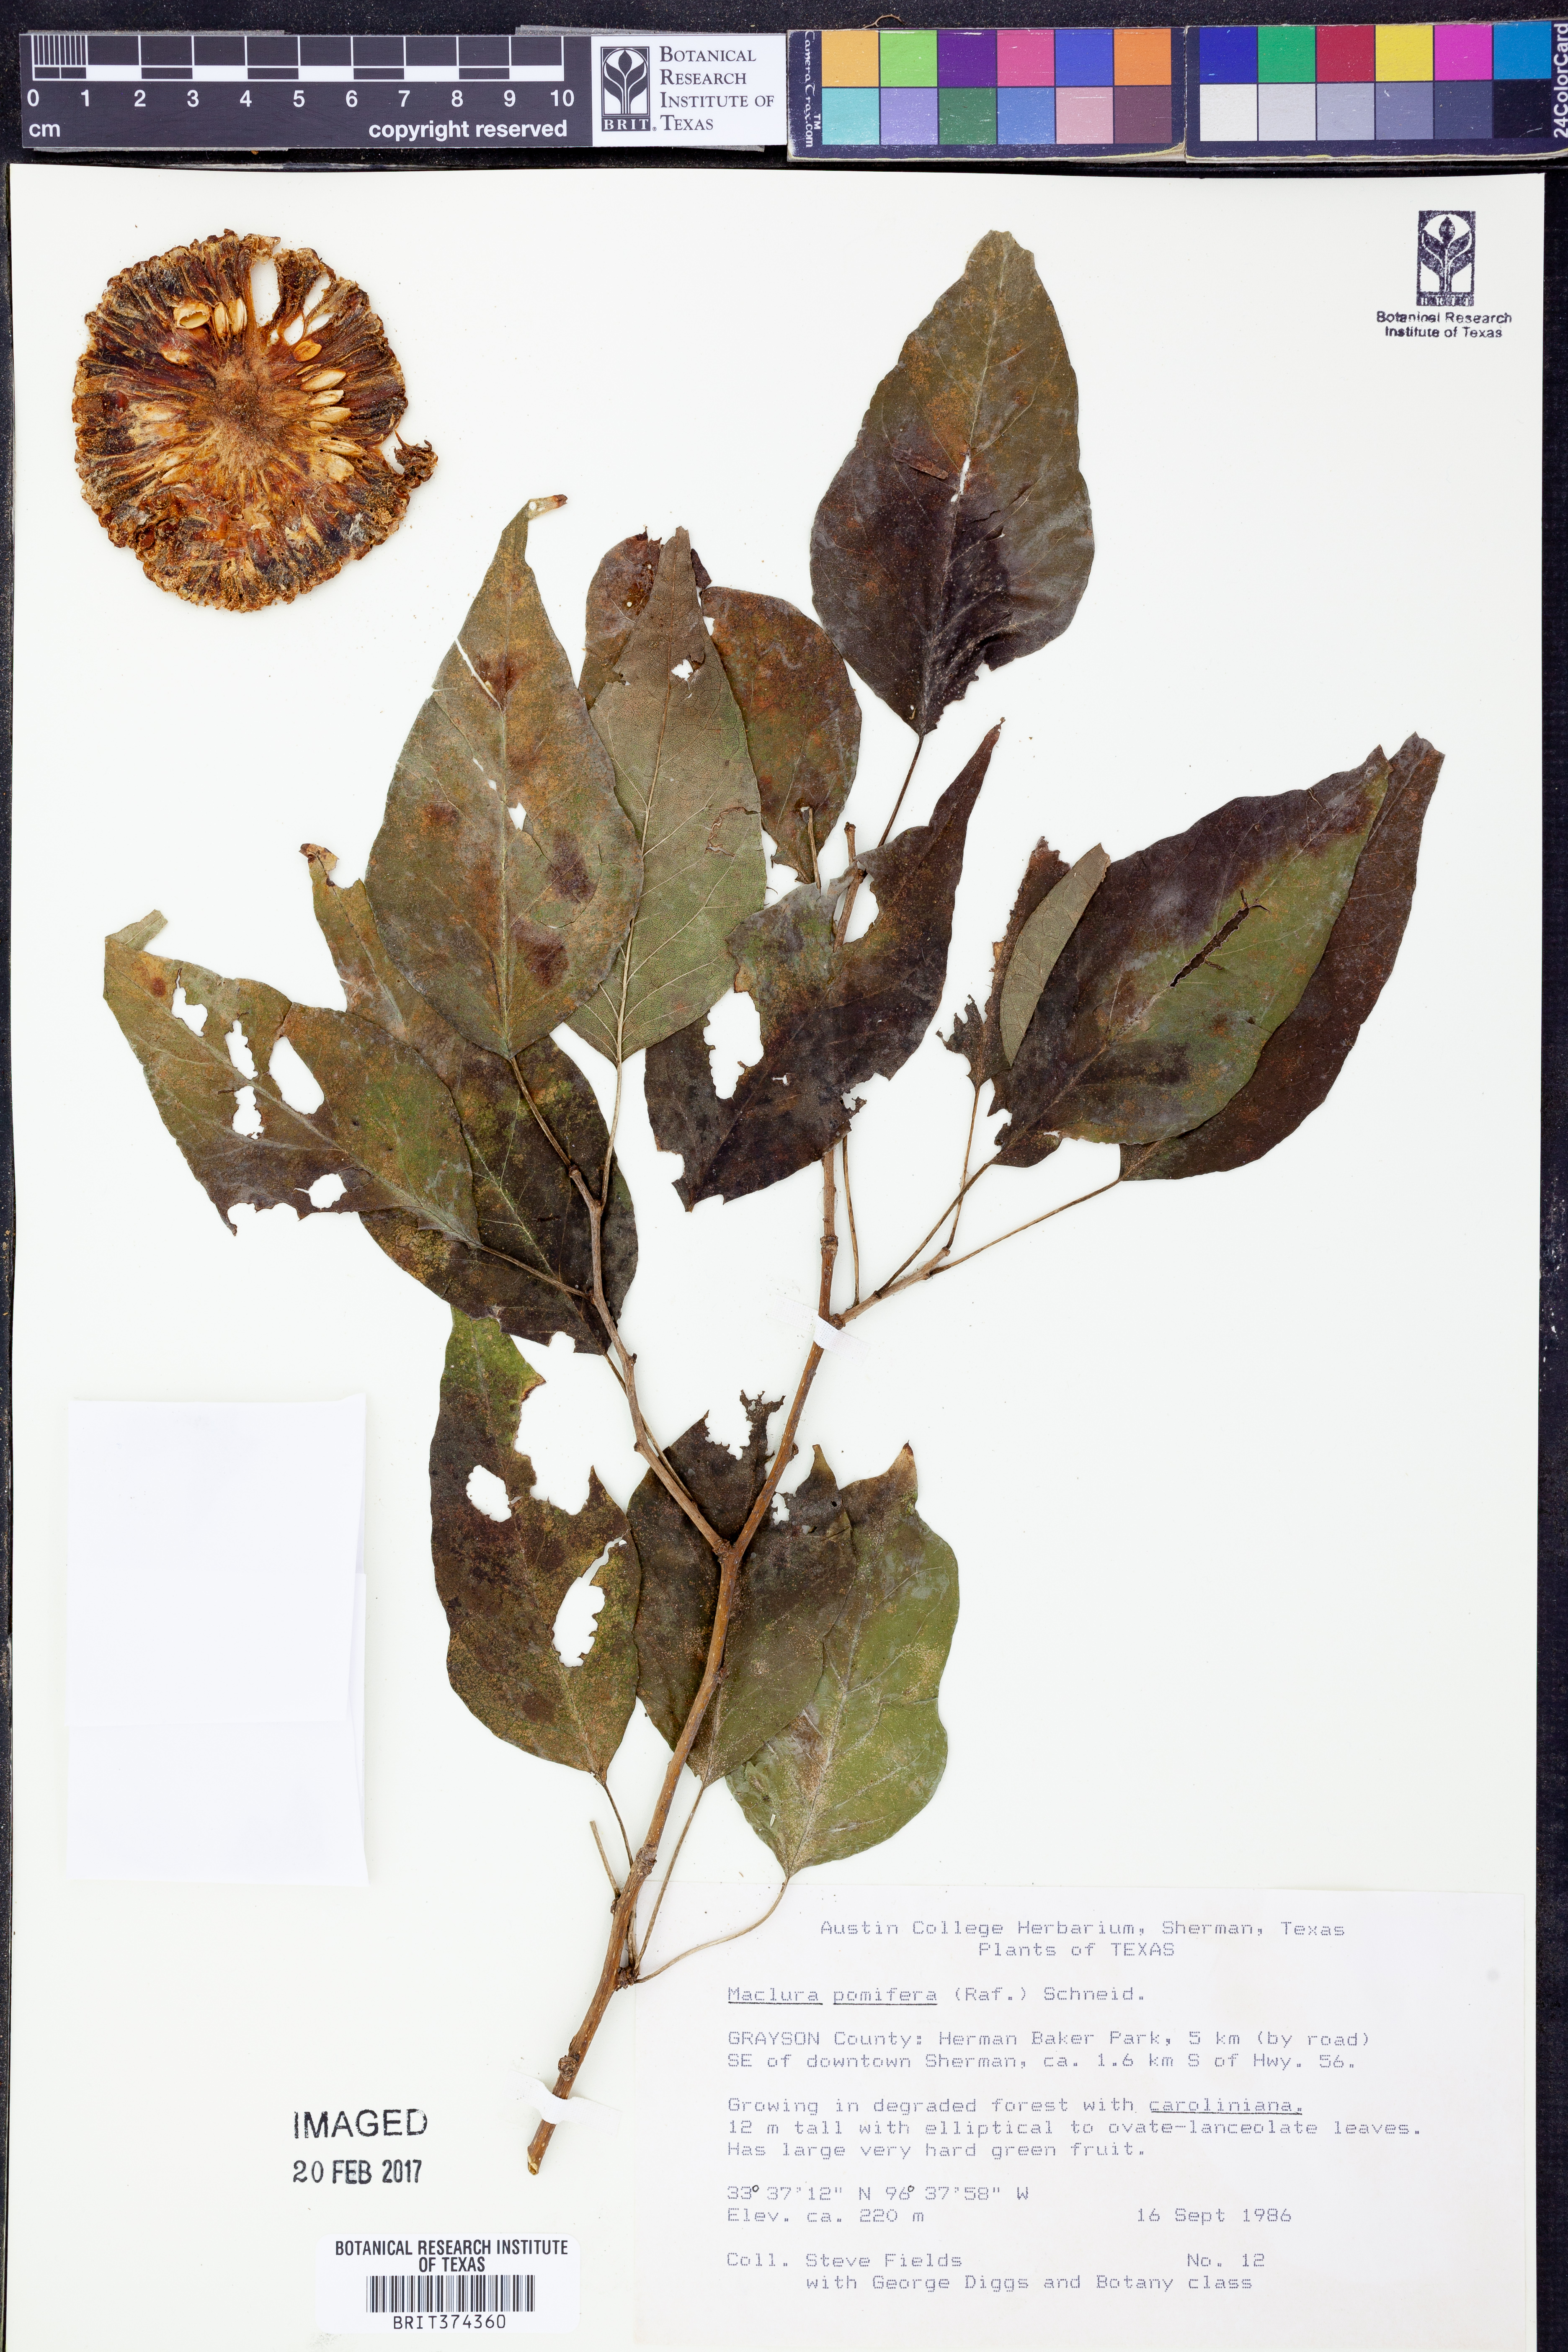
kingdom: Plantae
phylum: Tracheophyta
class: Magnoliopsida
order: Rosales
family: Moraceae
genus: Maclura
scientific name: Maclura pomifera
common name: Osage-orange
